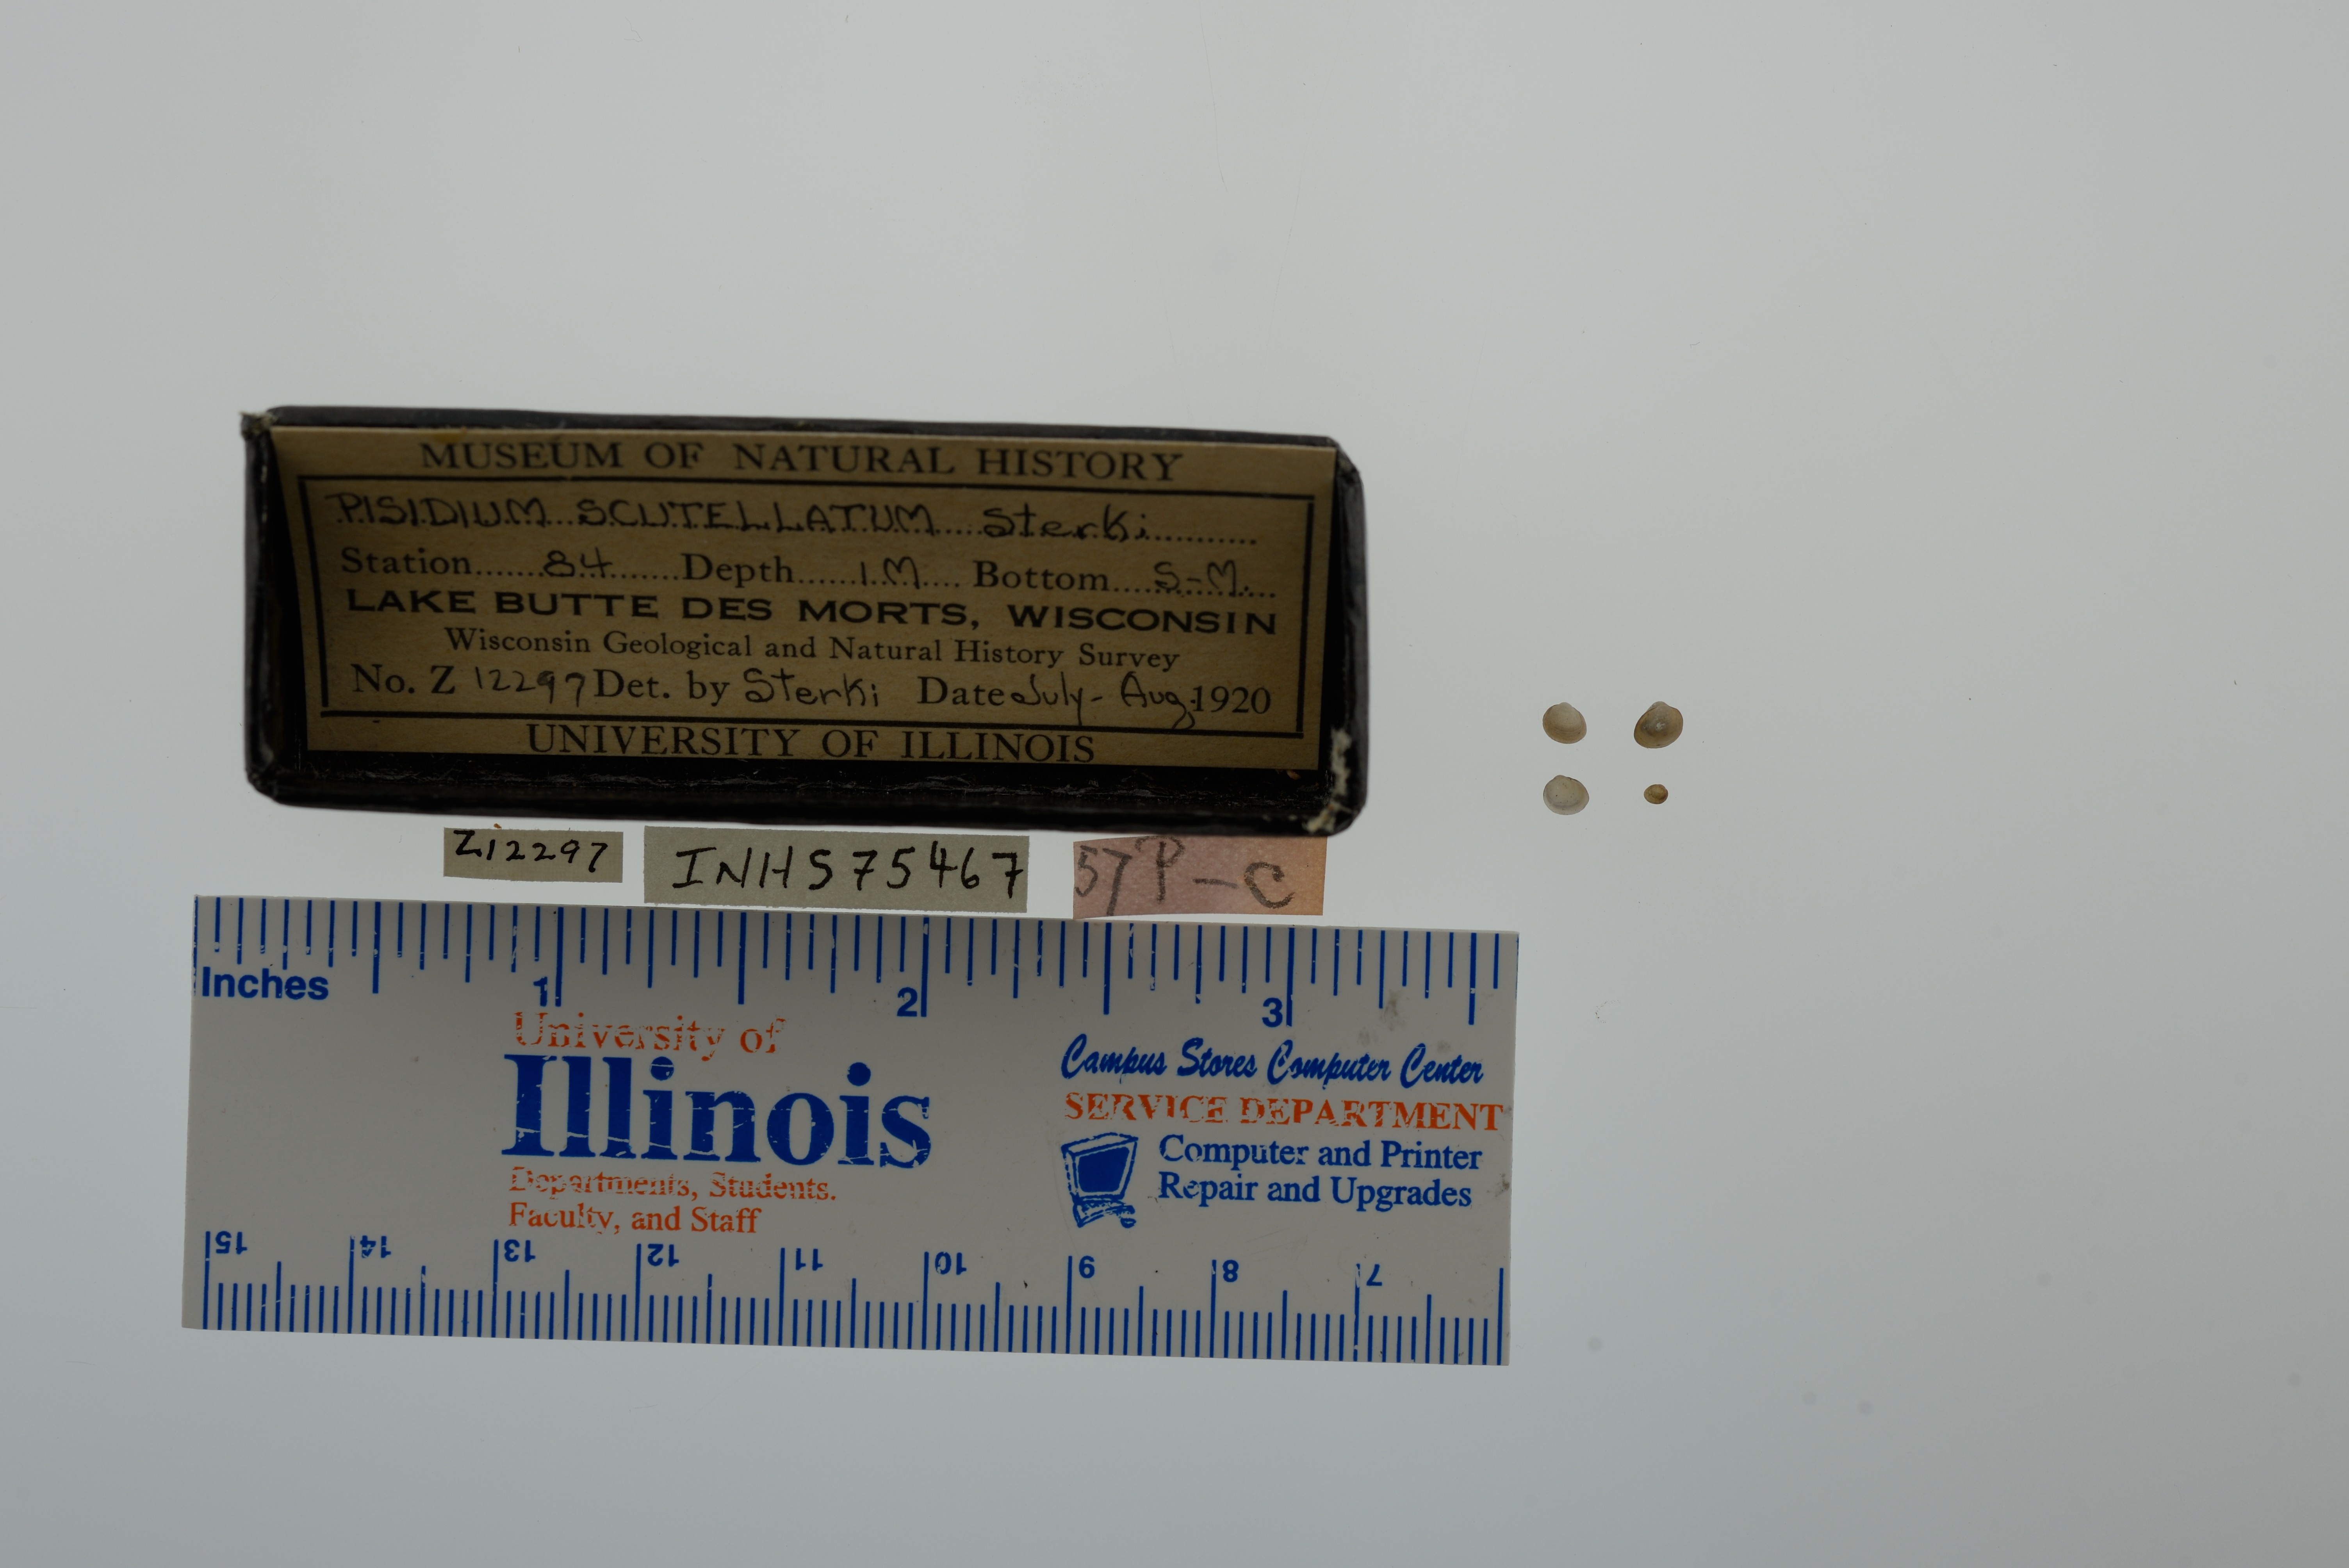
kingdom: Animalia
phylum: Mollusca
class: Bivalvia
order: Sphaeriida
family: Sphaeriidae
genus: Euglesa
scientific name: Euglesa lilljeborgii
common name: Lilljeborg peaclam
